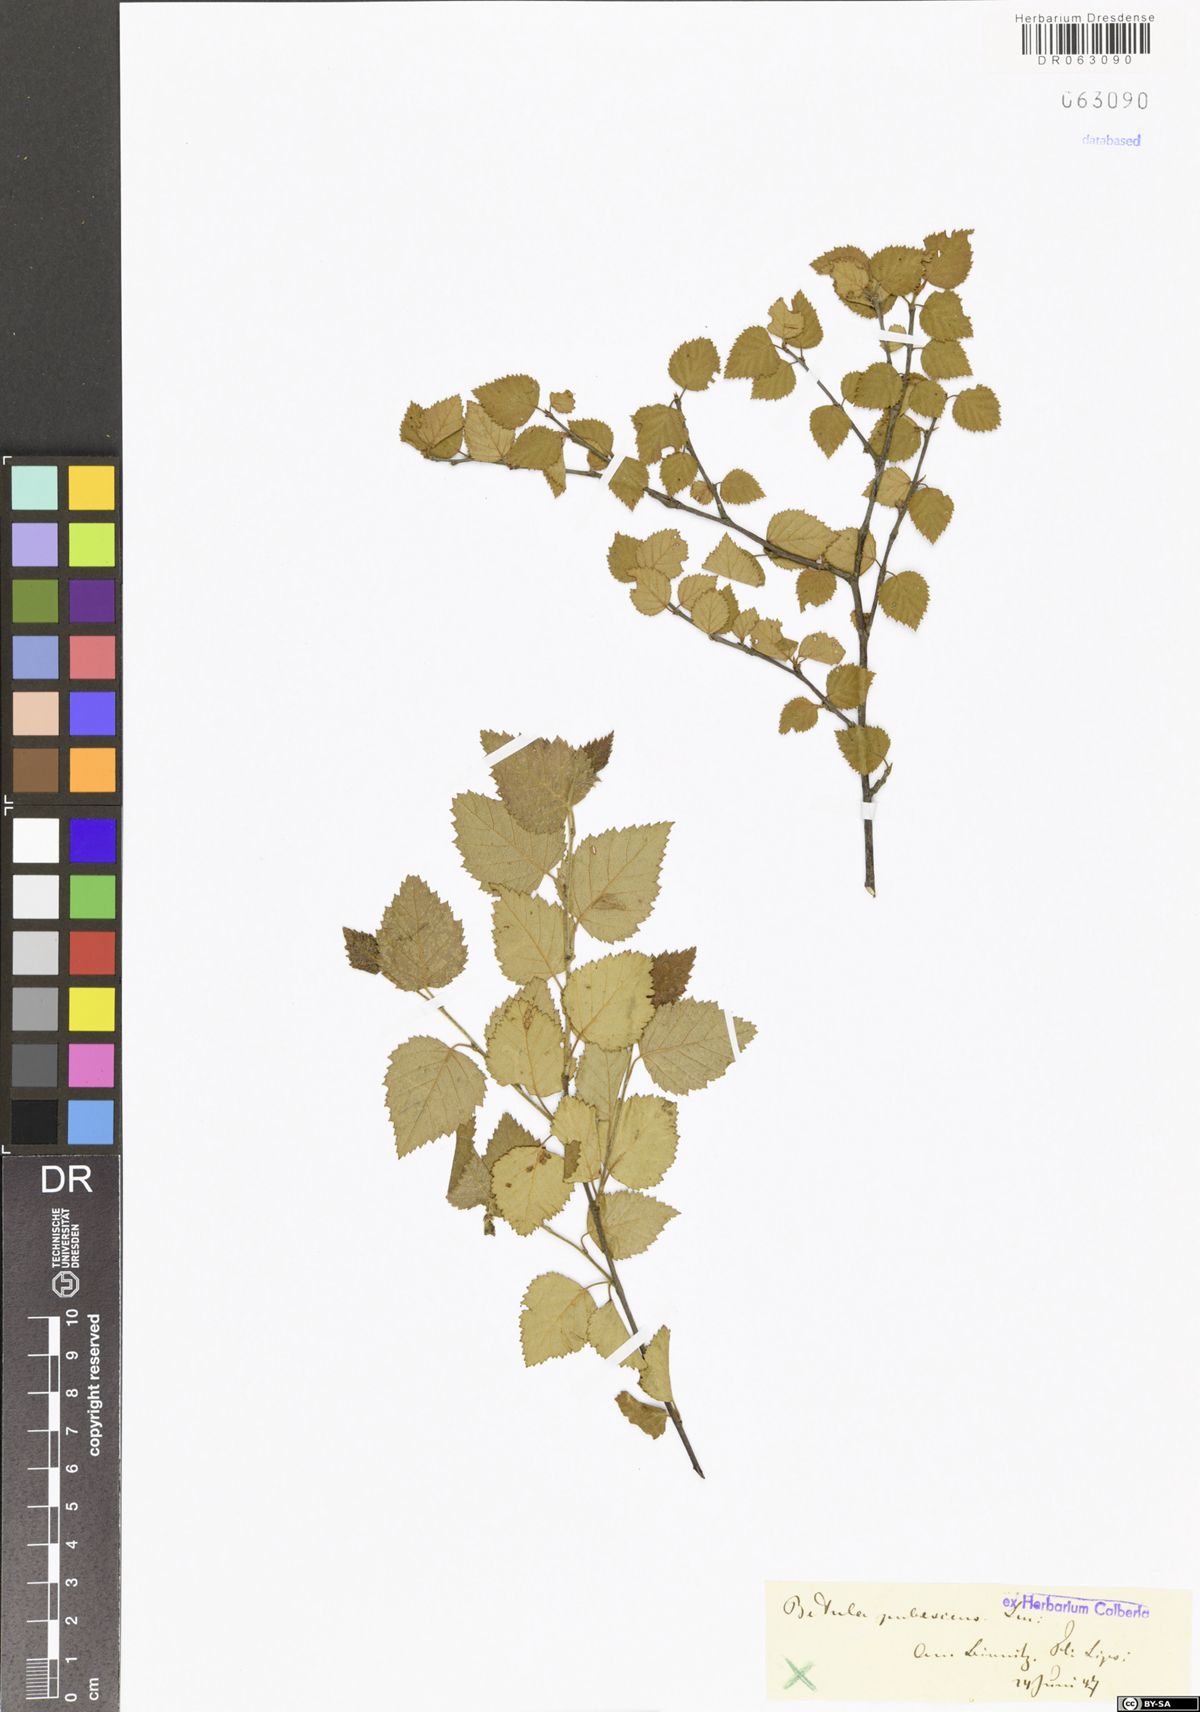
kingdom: Plantae
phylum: Tracheophyta
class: Magnoliopsida
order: Fagales
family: Betulaceae
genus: Betula
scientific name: Betula pubescens
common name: Downy birch
